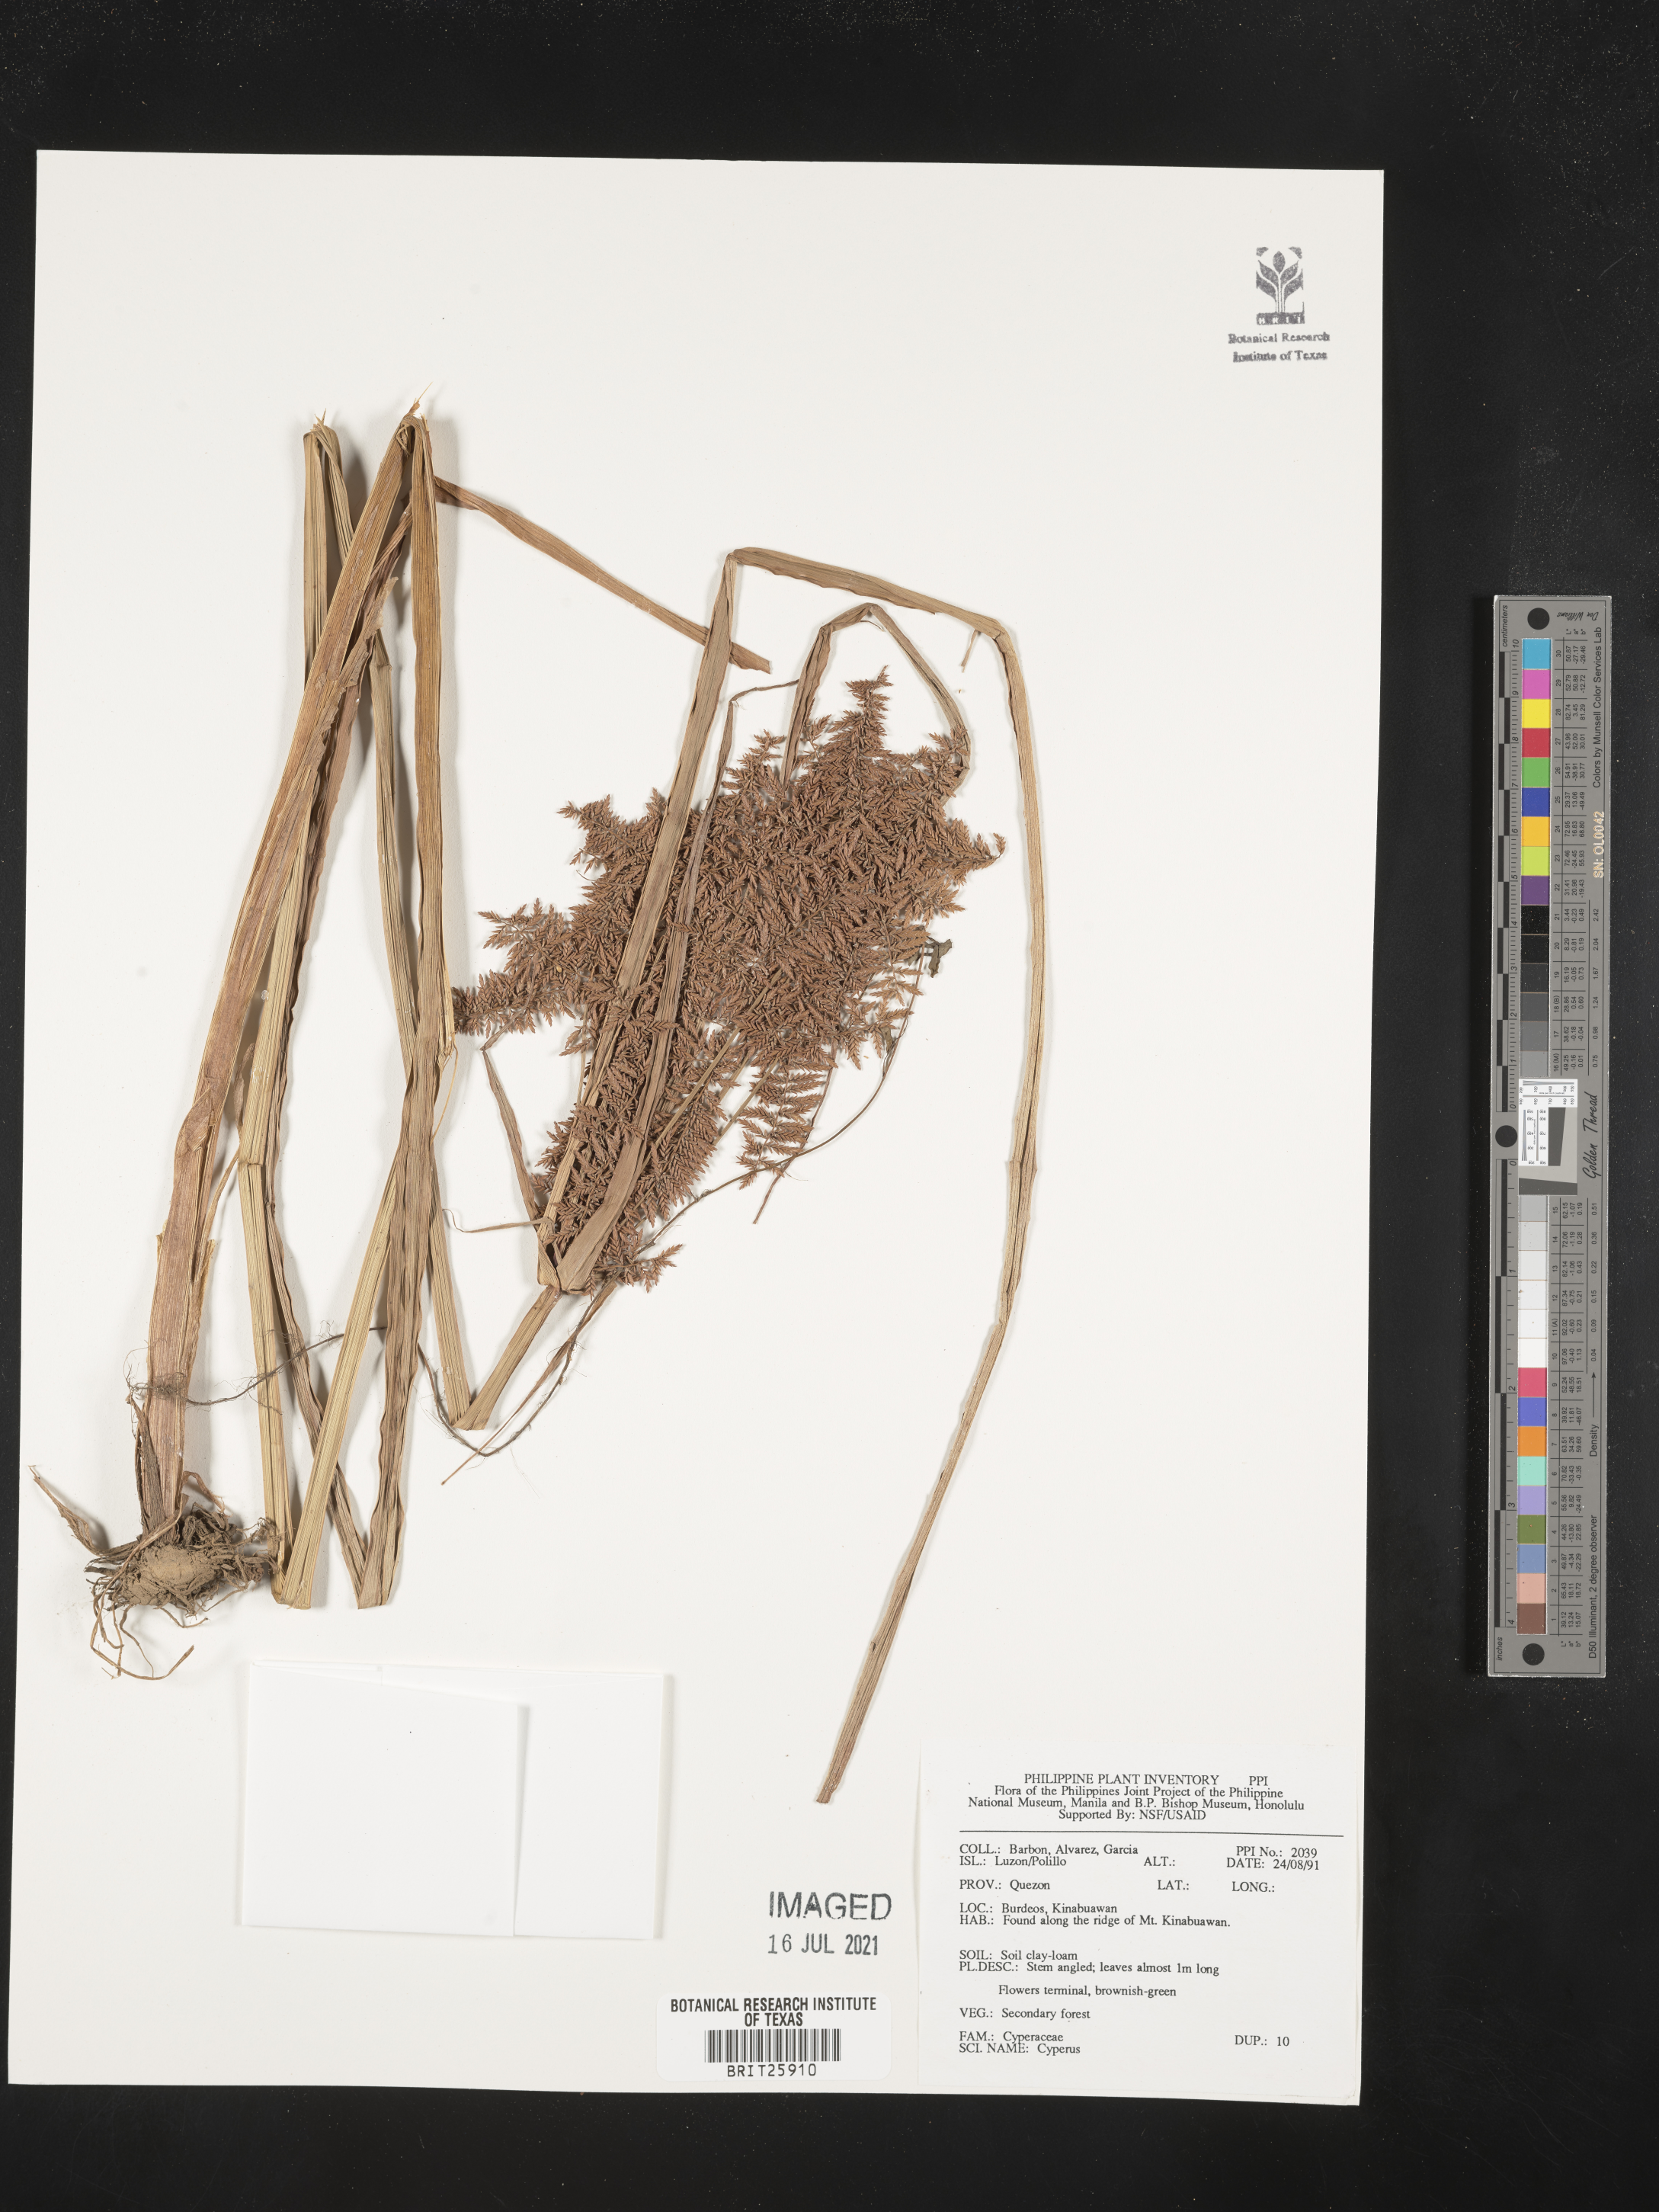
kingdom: Plantae
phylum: Tracheophyta
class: Liliopsida
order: Poales
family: Cyperaceae
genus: Cyperus
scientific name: Cyperus
